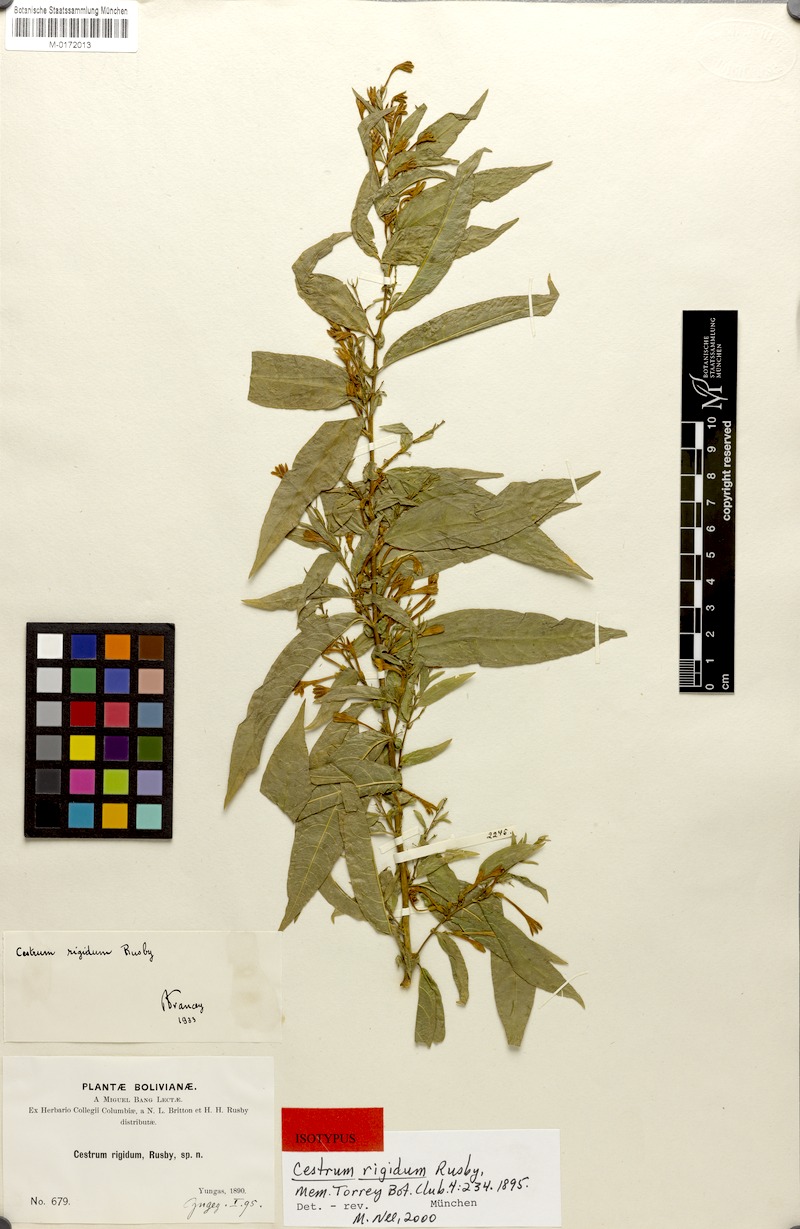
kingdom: Plantae
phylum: Tracheophyta
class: Magnoliopsida
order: Solanales
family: Solanaceae
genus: Cestrum
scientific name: Cestrum rigidum
